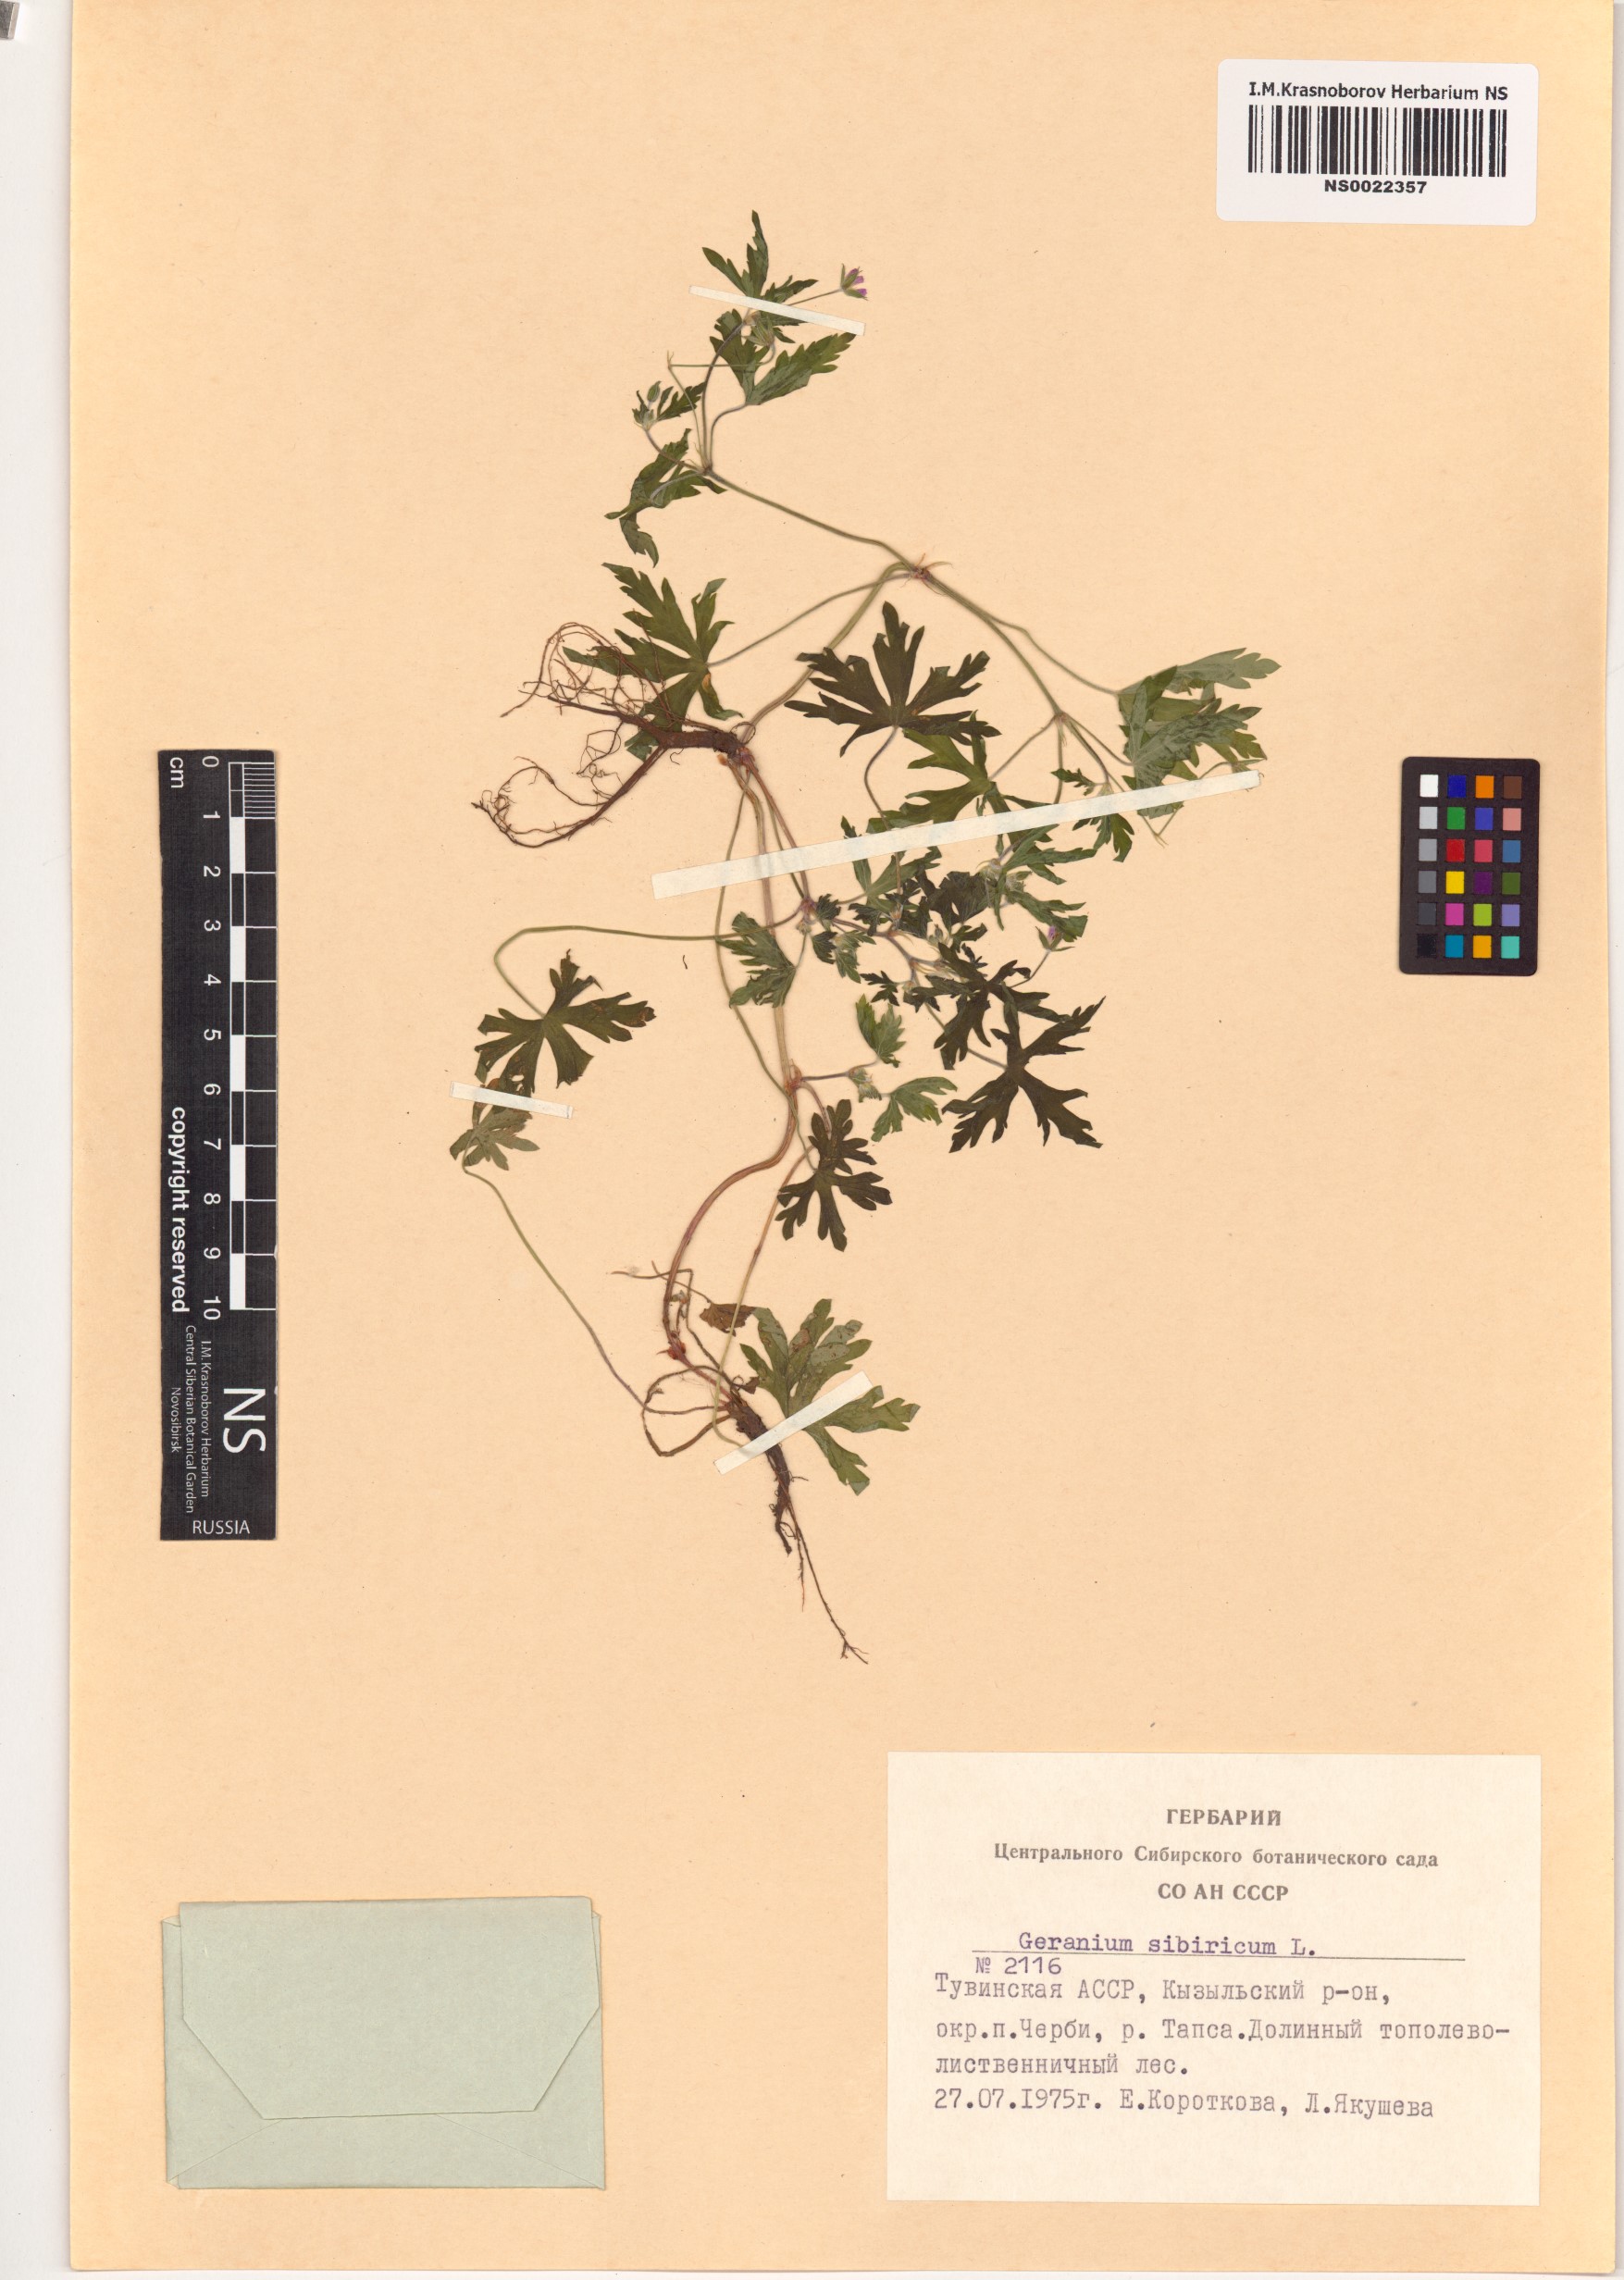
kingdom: Plantae
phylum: Tracheophyta
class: Magnoliopsida
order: Geraniales
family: Geraniaceae
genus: Geranium
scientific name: Geranium sibiricum
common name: Siberian crane's-bill
